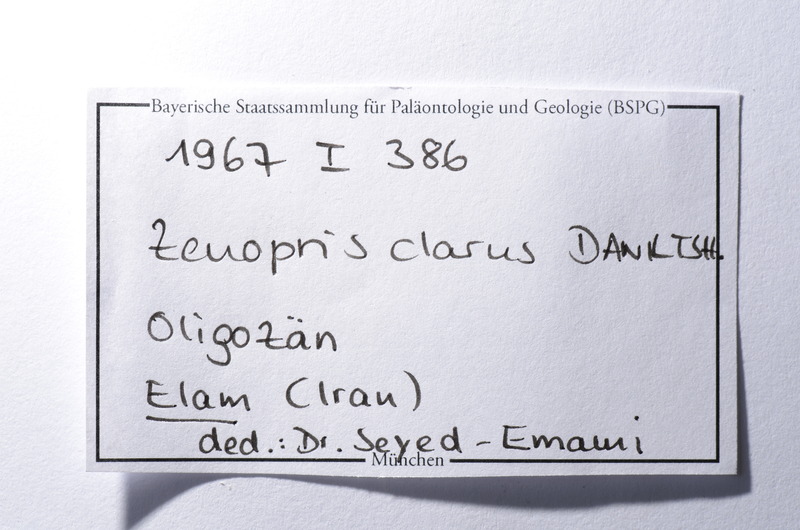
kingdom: Animalia
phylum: Chordata
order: Zeiformes
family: Zeidae
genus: Zenopsis
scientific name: Zenopsis clarus
